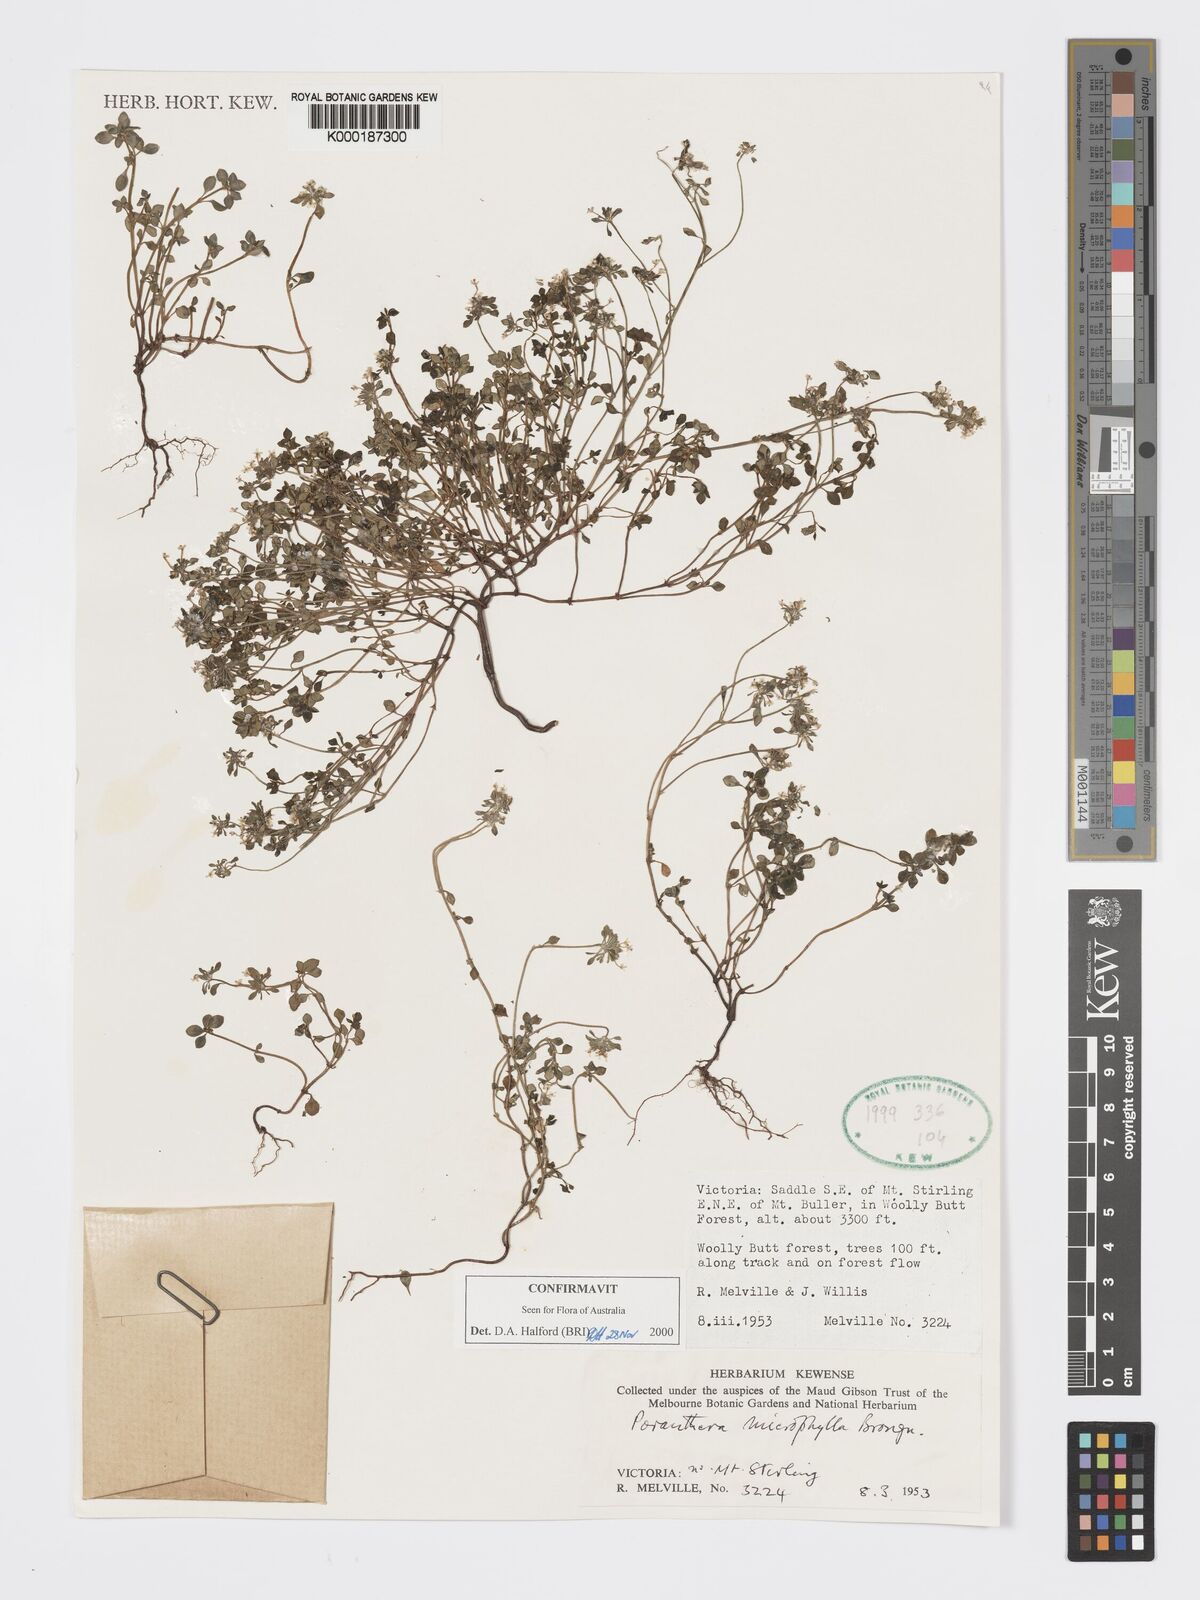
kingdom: Plantae
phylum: Tracheophyta
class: Magnoliopsida
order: Malpighiales
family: Phyllanthaceae
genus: Poranthera
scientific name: Poranthera microphylla
